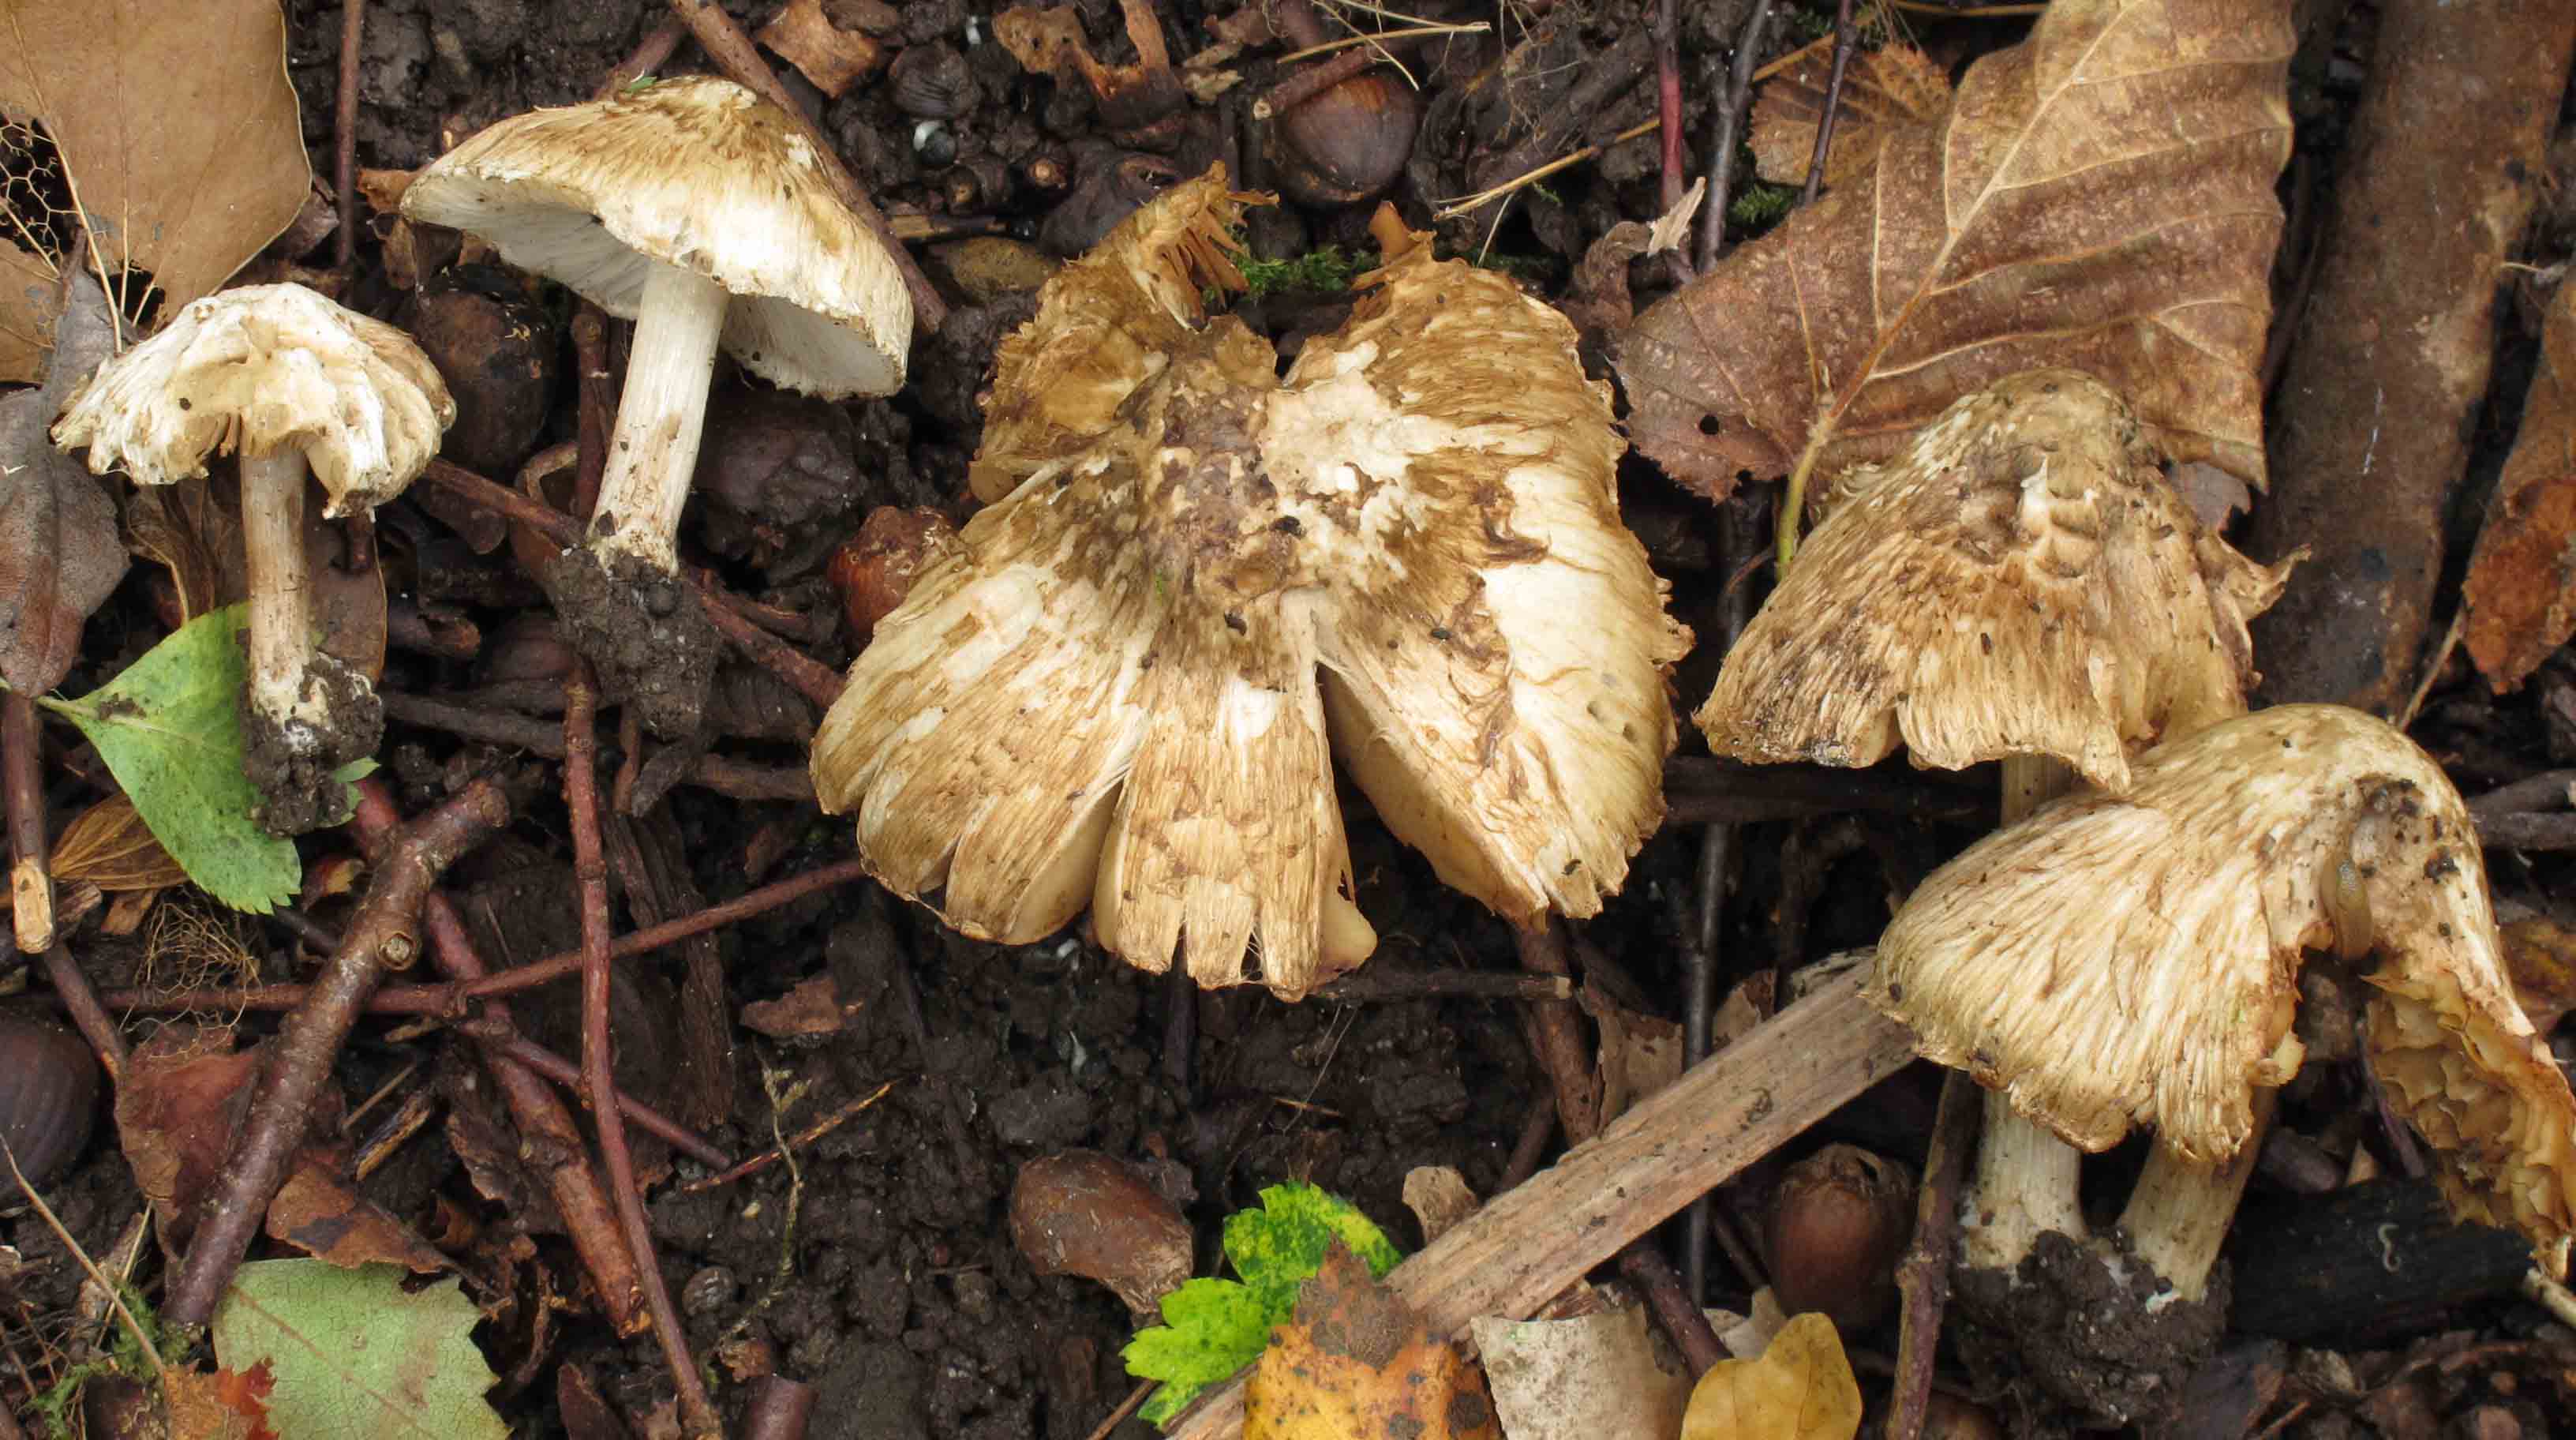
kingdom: Fungi
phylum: Basidiomycota
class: Agaricomycetes
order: Agaricales
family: Inocybaceae
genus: Inocybe
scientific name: Inocybe corydalina
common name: grønpuklet trævlhat
